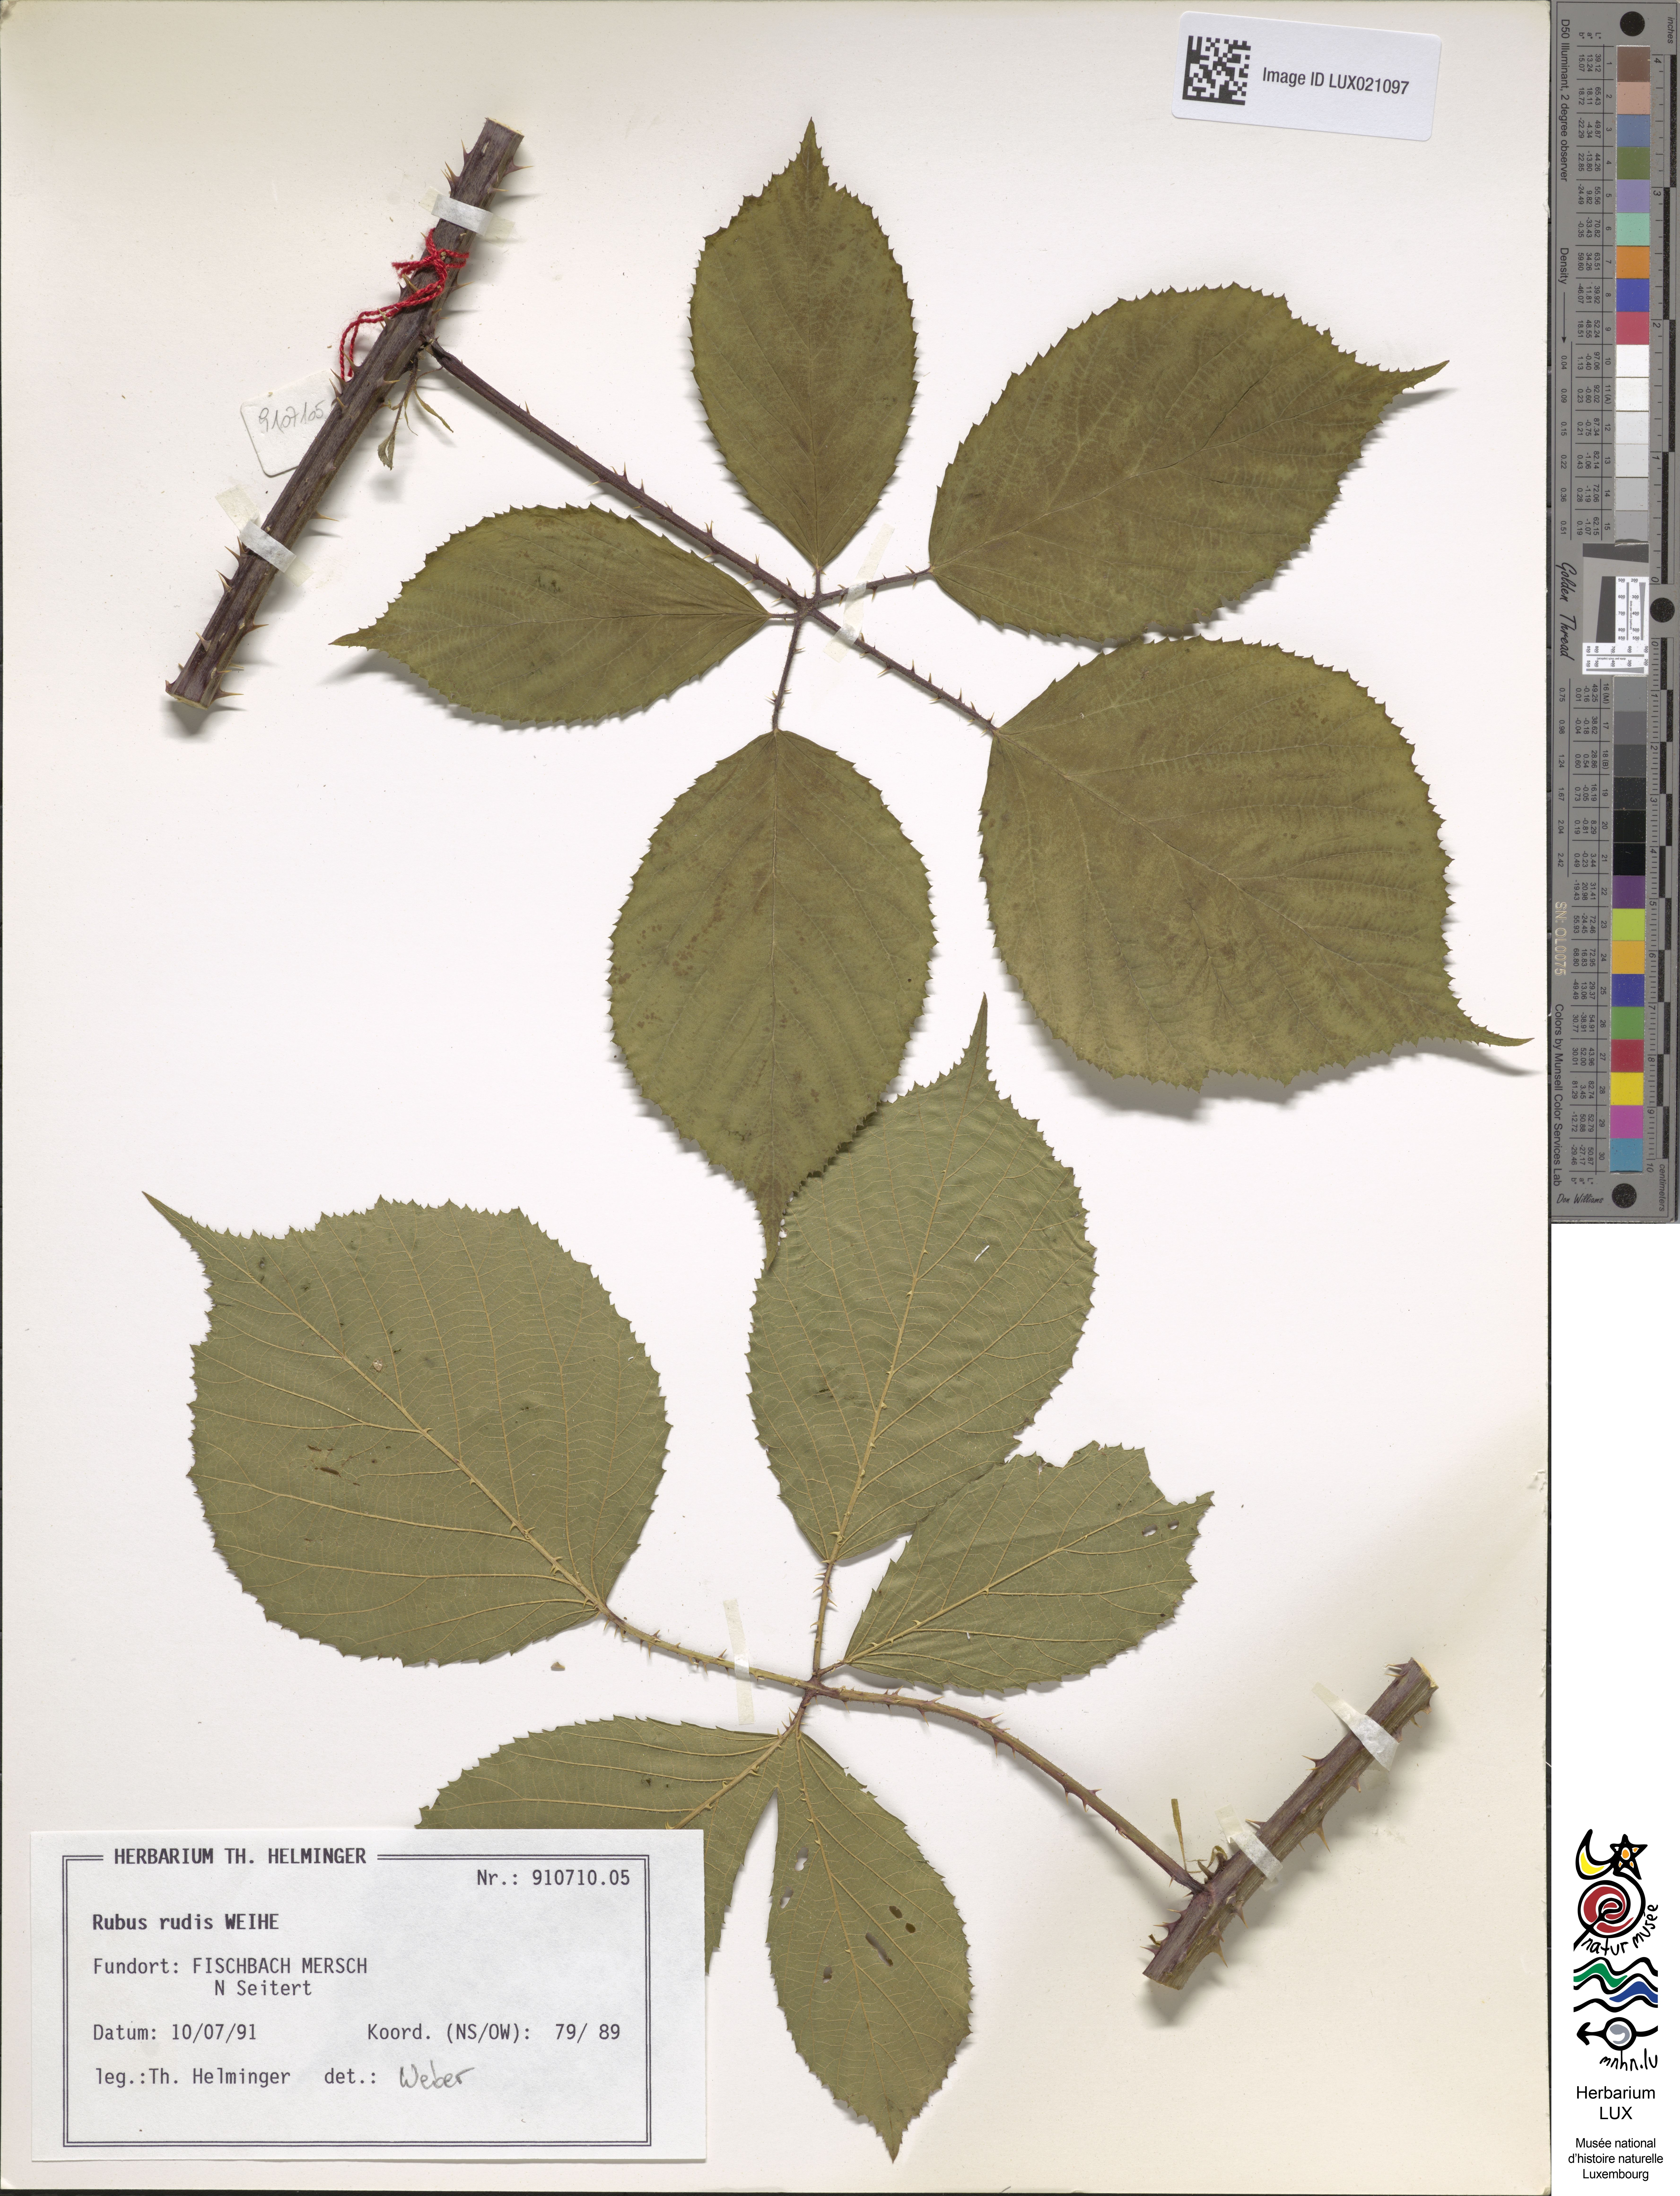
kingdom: Plantae
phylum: Tracheophyta
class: Magnoliopsida
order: Rosales
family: Rosaceae
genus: Rubus
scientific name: Rubus rudis
